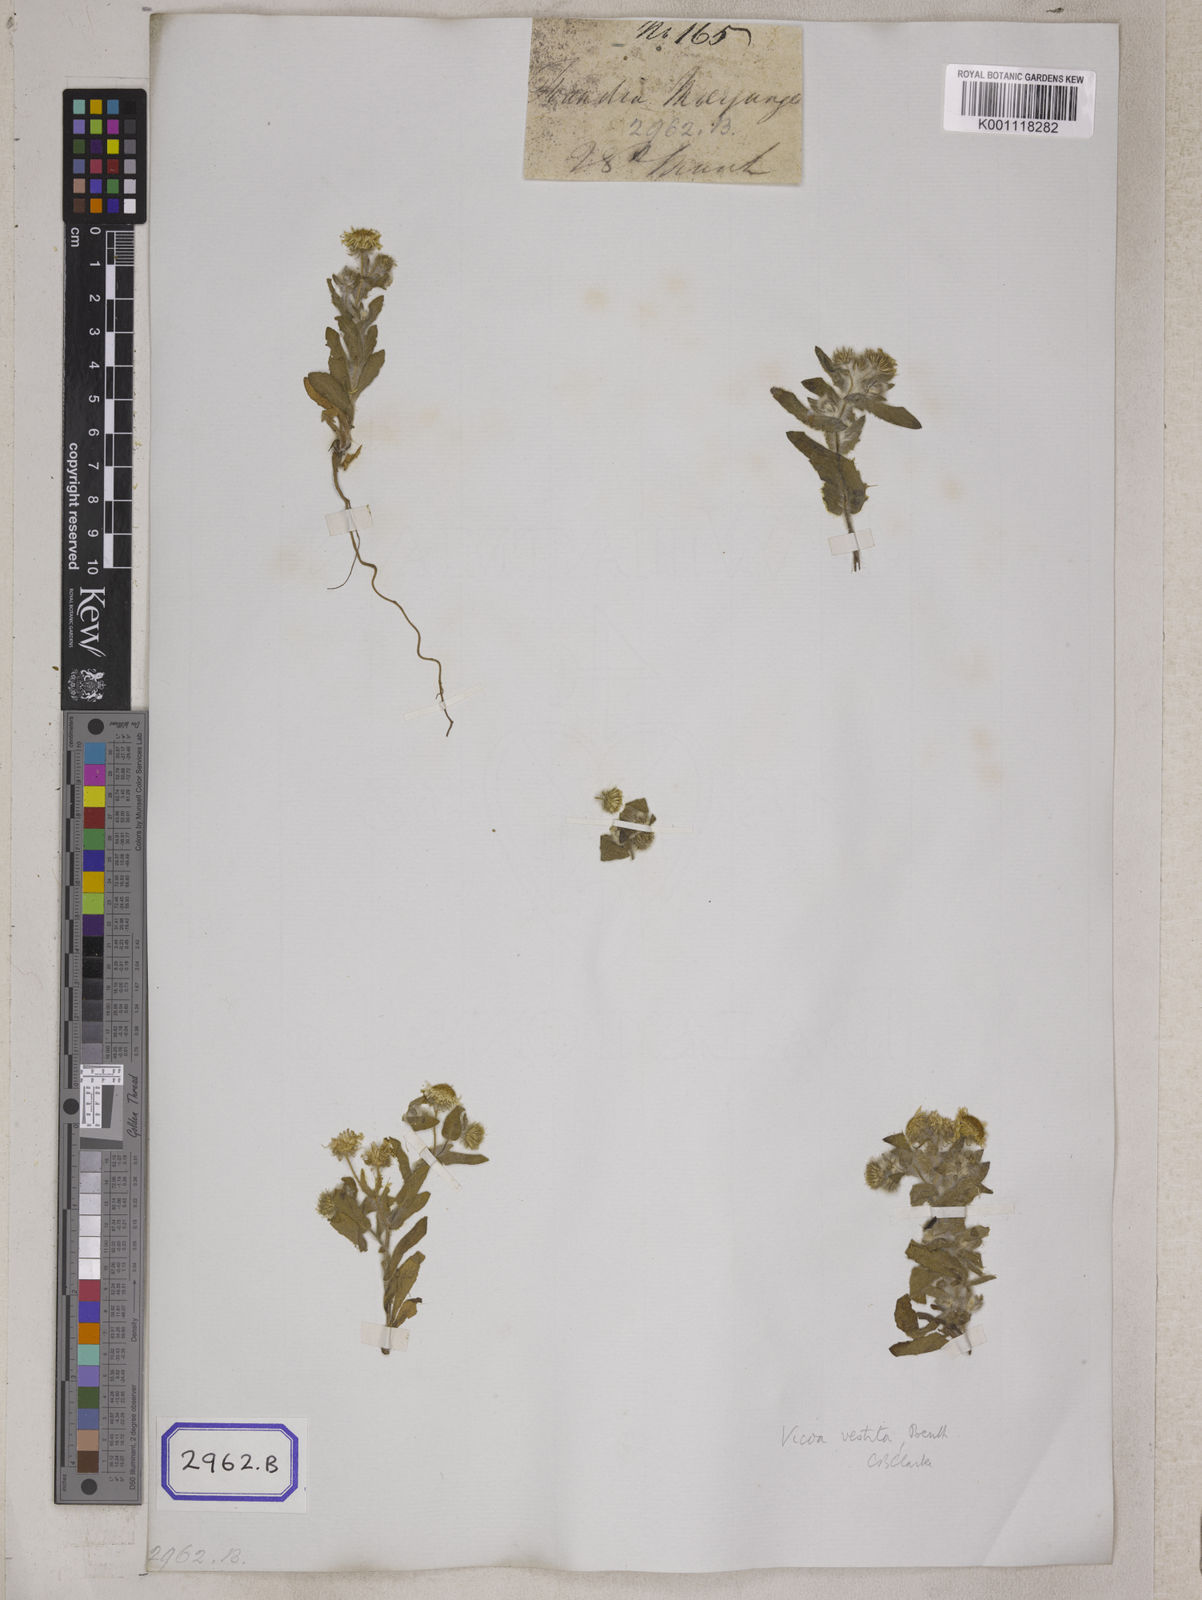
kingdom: Plantae
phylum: Tracheophyta
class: Magnoliopsida
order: Asterales
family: Asteraceae
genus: Pentanema
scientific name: Pentanema divaricatum
